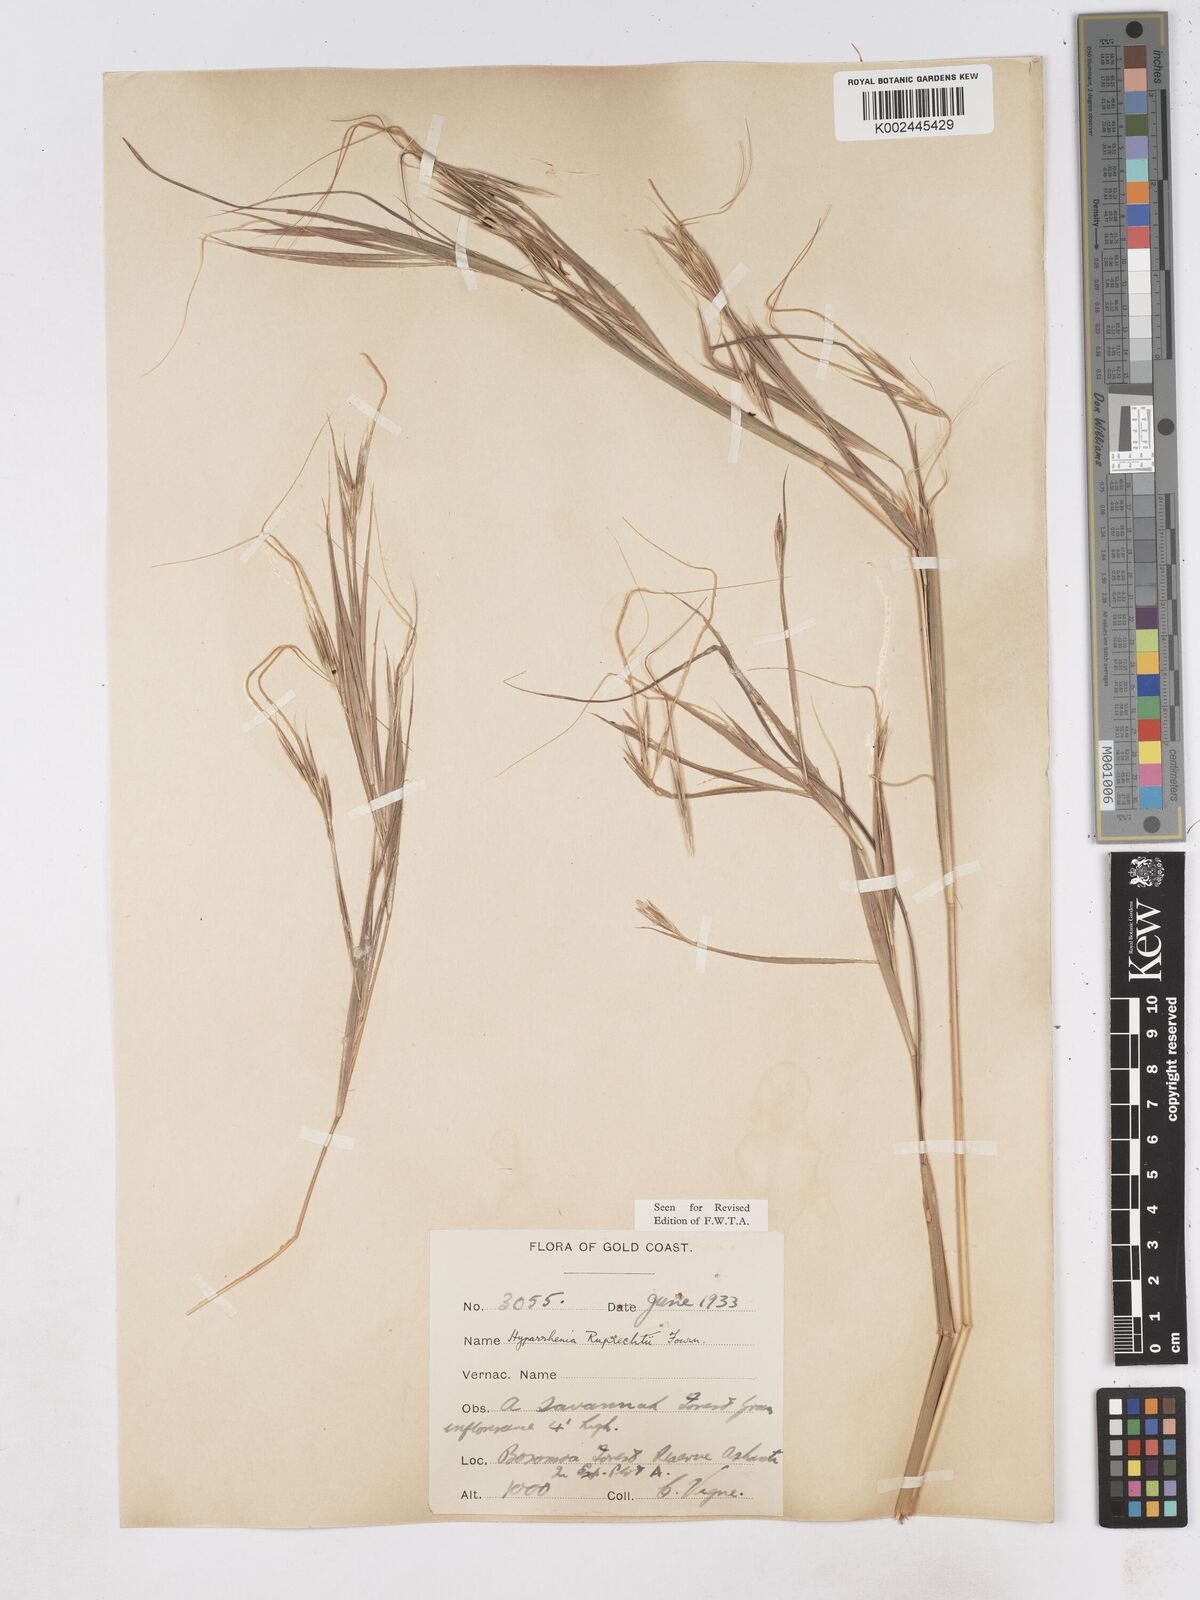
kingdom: Plantae
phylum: Tracheophyta
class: Liliopsida
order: Poales
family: Poaceae
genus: Hyperthelia
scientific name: Hyperthelia dissoluta
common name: Yellow thatching grass
